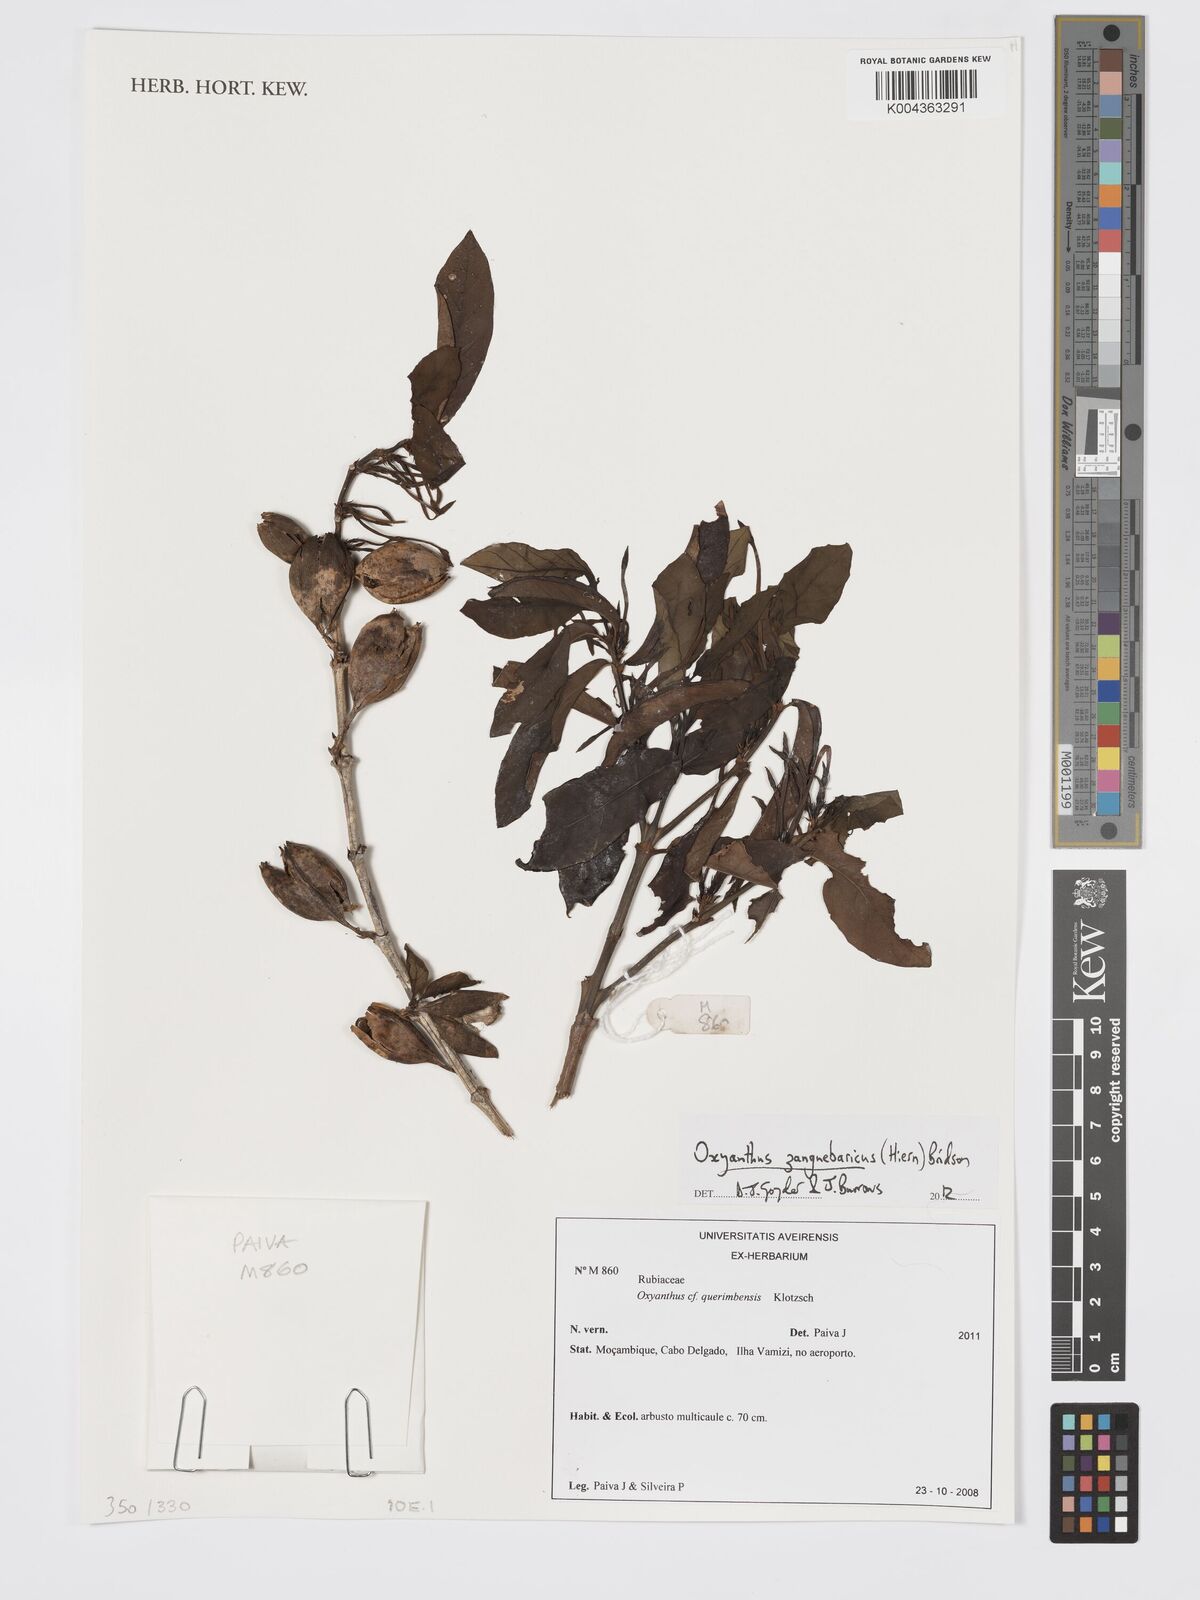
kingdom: Plantae
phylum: Tracheophyta
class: Magnoliopsida
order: Gentianales
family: Rubiaceae
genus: Oxyanthus
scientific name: Oxyanthus zanguebaricus
